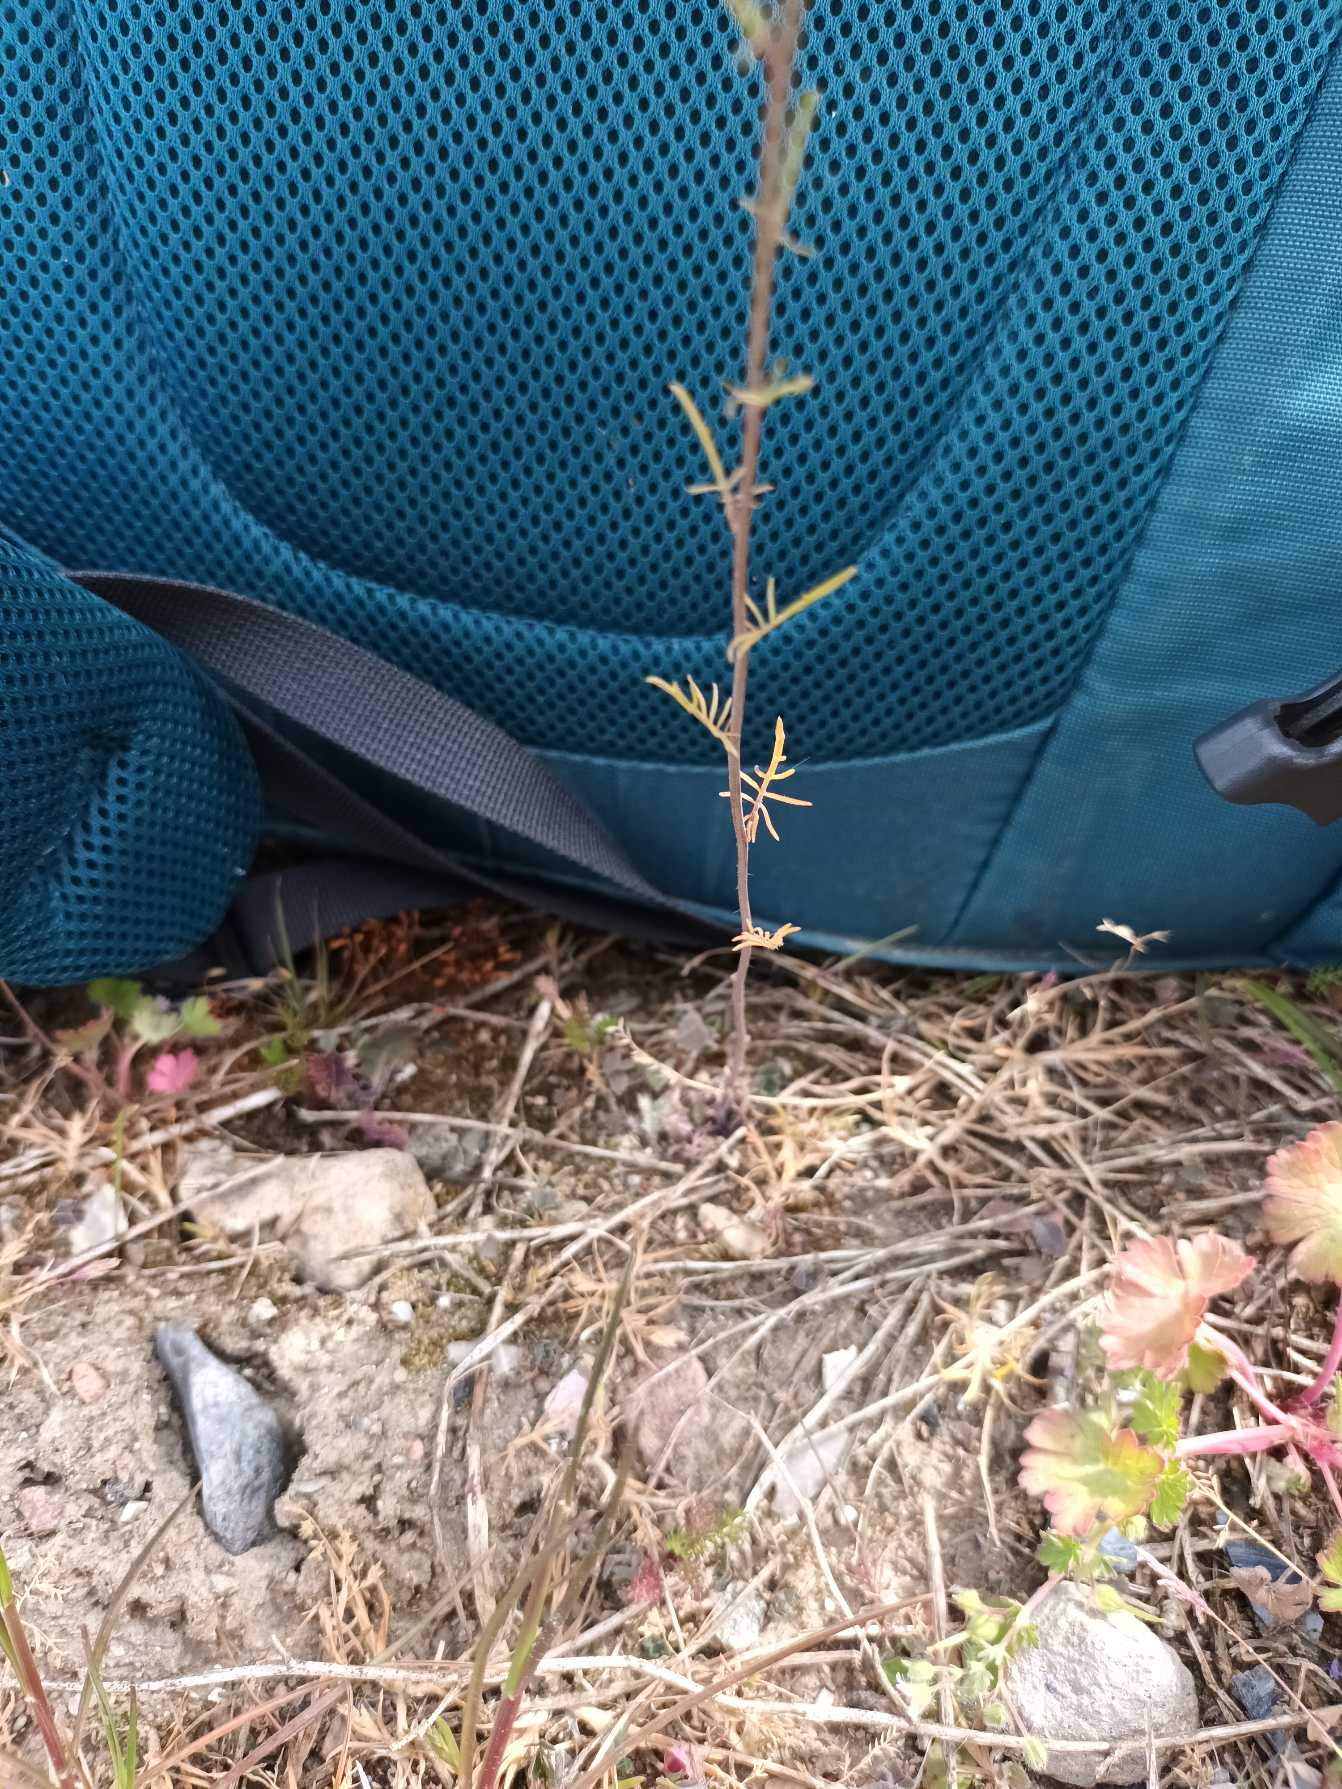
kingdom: Plantae
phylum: Tracheophyta
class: Magnoliopsida
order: Brassicales
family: Brassicaceae
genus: Sisymbrium
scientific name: Sisymbrium altissimum
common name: Ungarsk vejsennep
